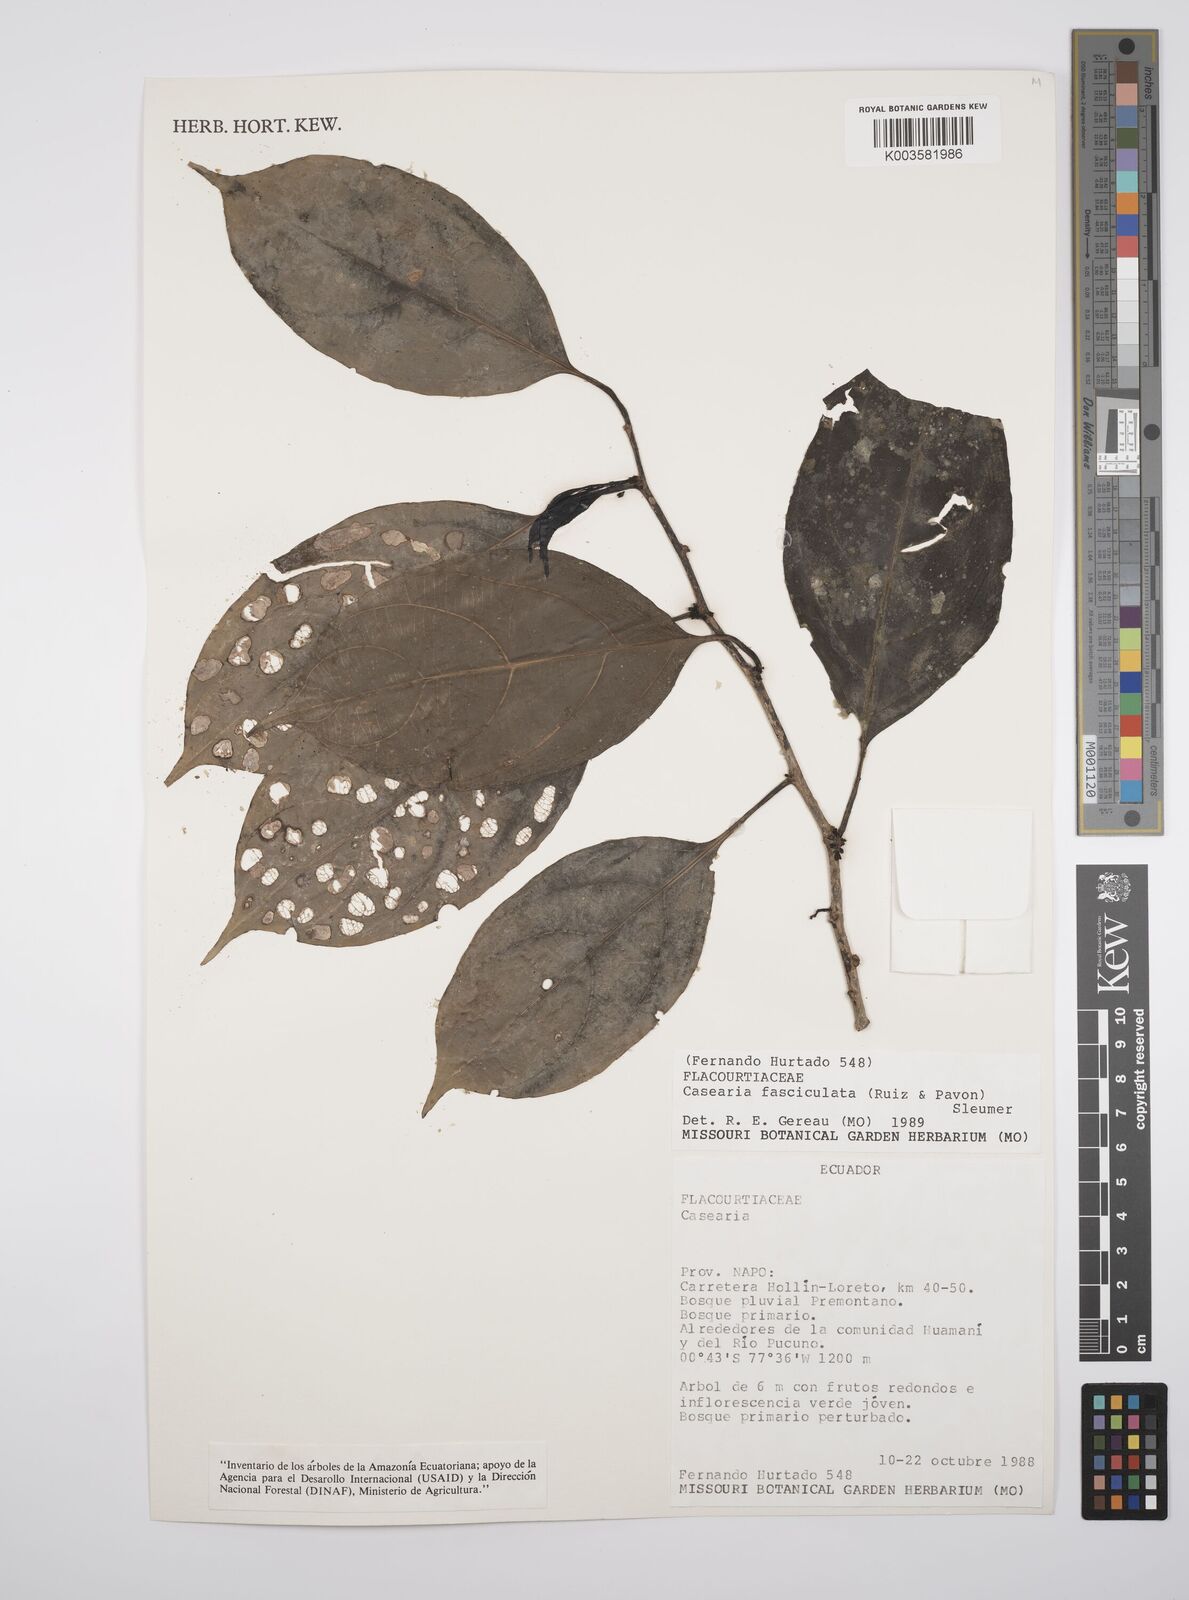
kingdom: Plantae
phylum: Tracheophyta
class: Magnoliopsida
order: Malpighiales
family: Salicaceae
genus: Casearia
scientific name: Casearia
